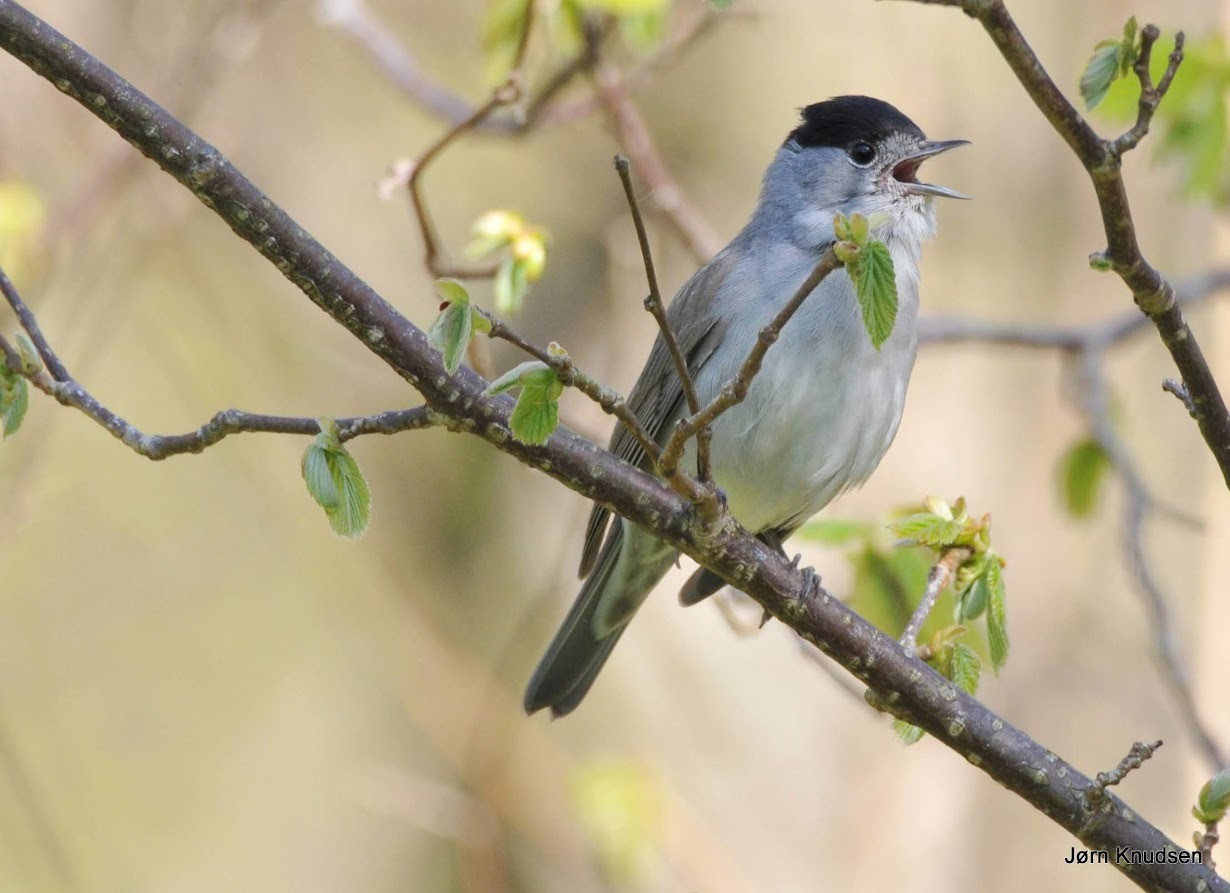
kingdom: Animalia
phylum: Chordata
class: Aves
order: Passeriformes
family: Sylviidae
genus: Sylvia
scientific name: Sylvia atricapilla
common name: Munk
